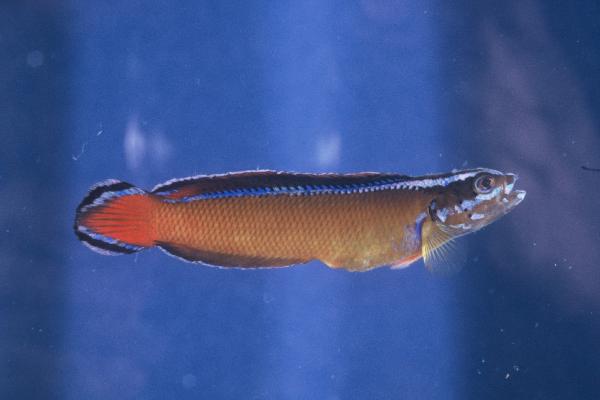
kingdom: Animalia
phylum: Chordata
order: Perciformes
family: Pseudochromidae
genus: Pseudochromis
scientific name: Pseudochromis dutoiti
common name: Dutoiti
